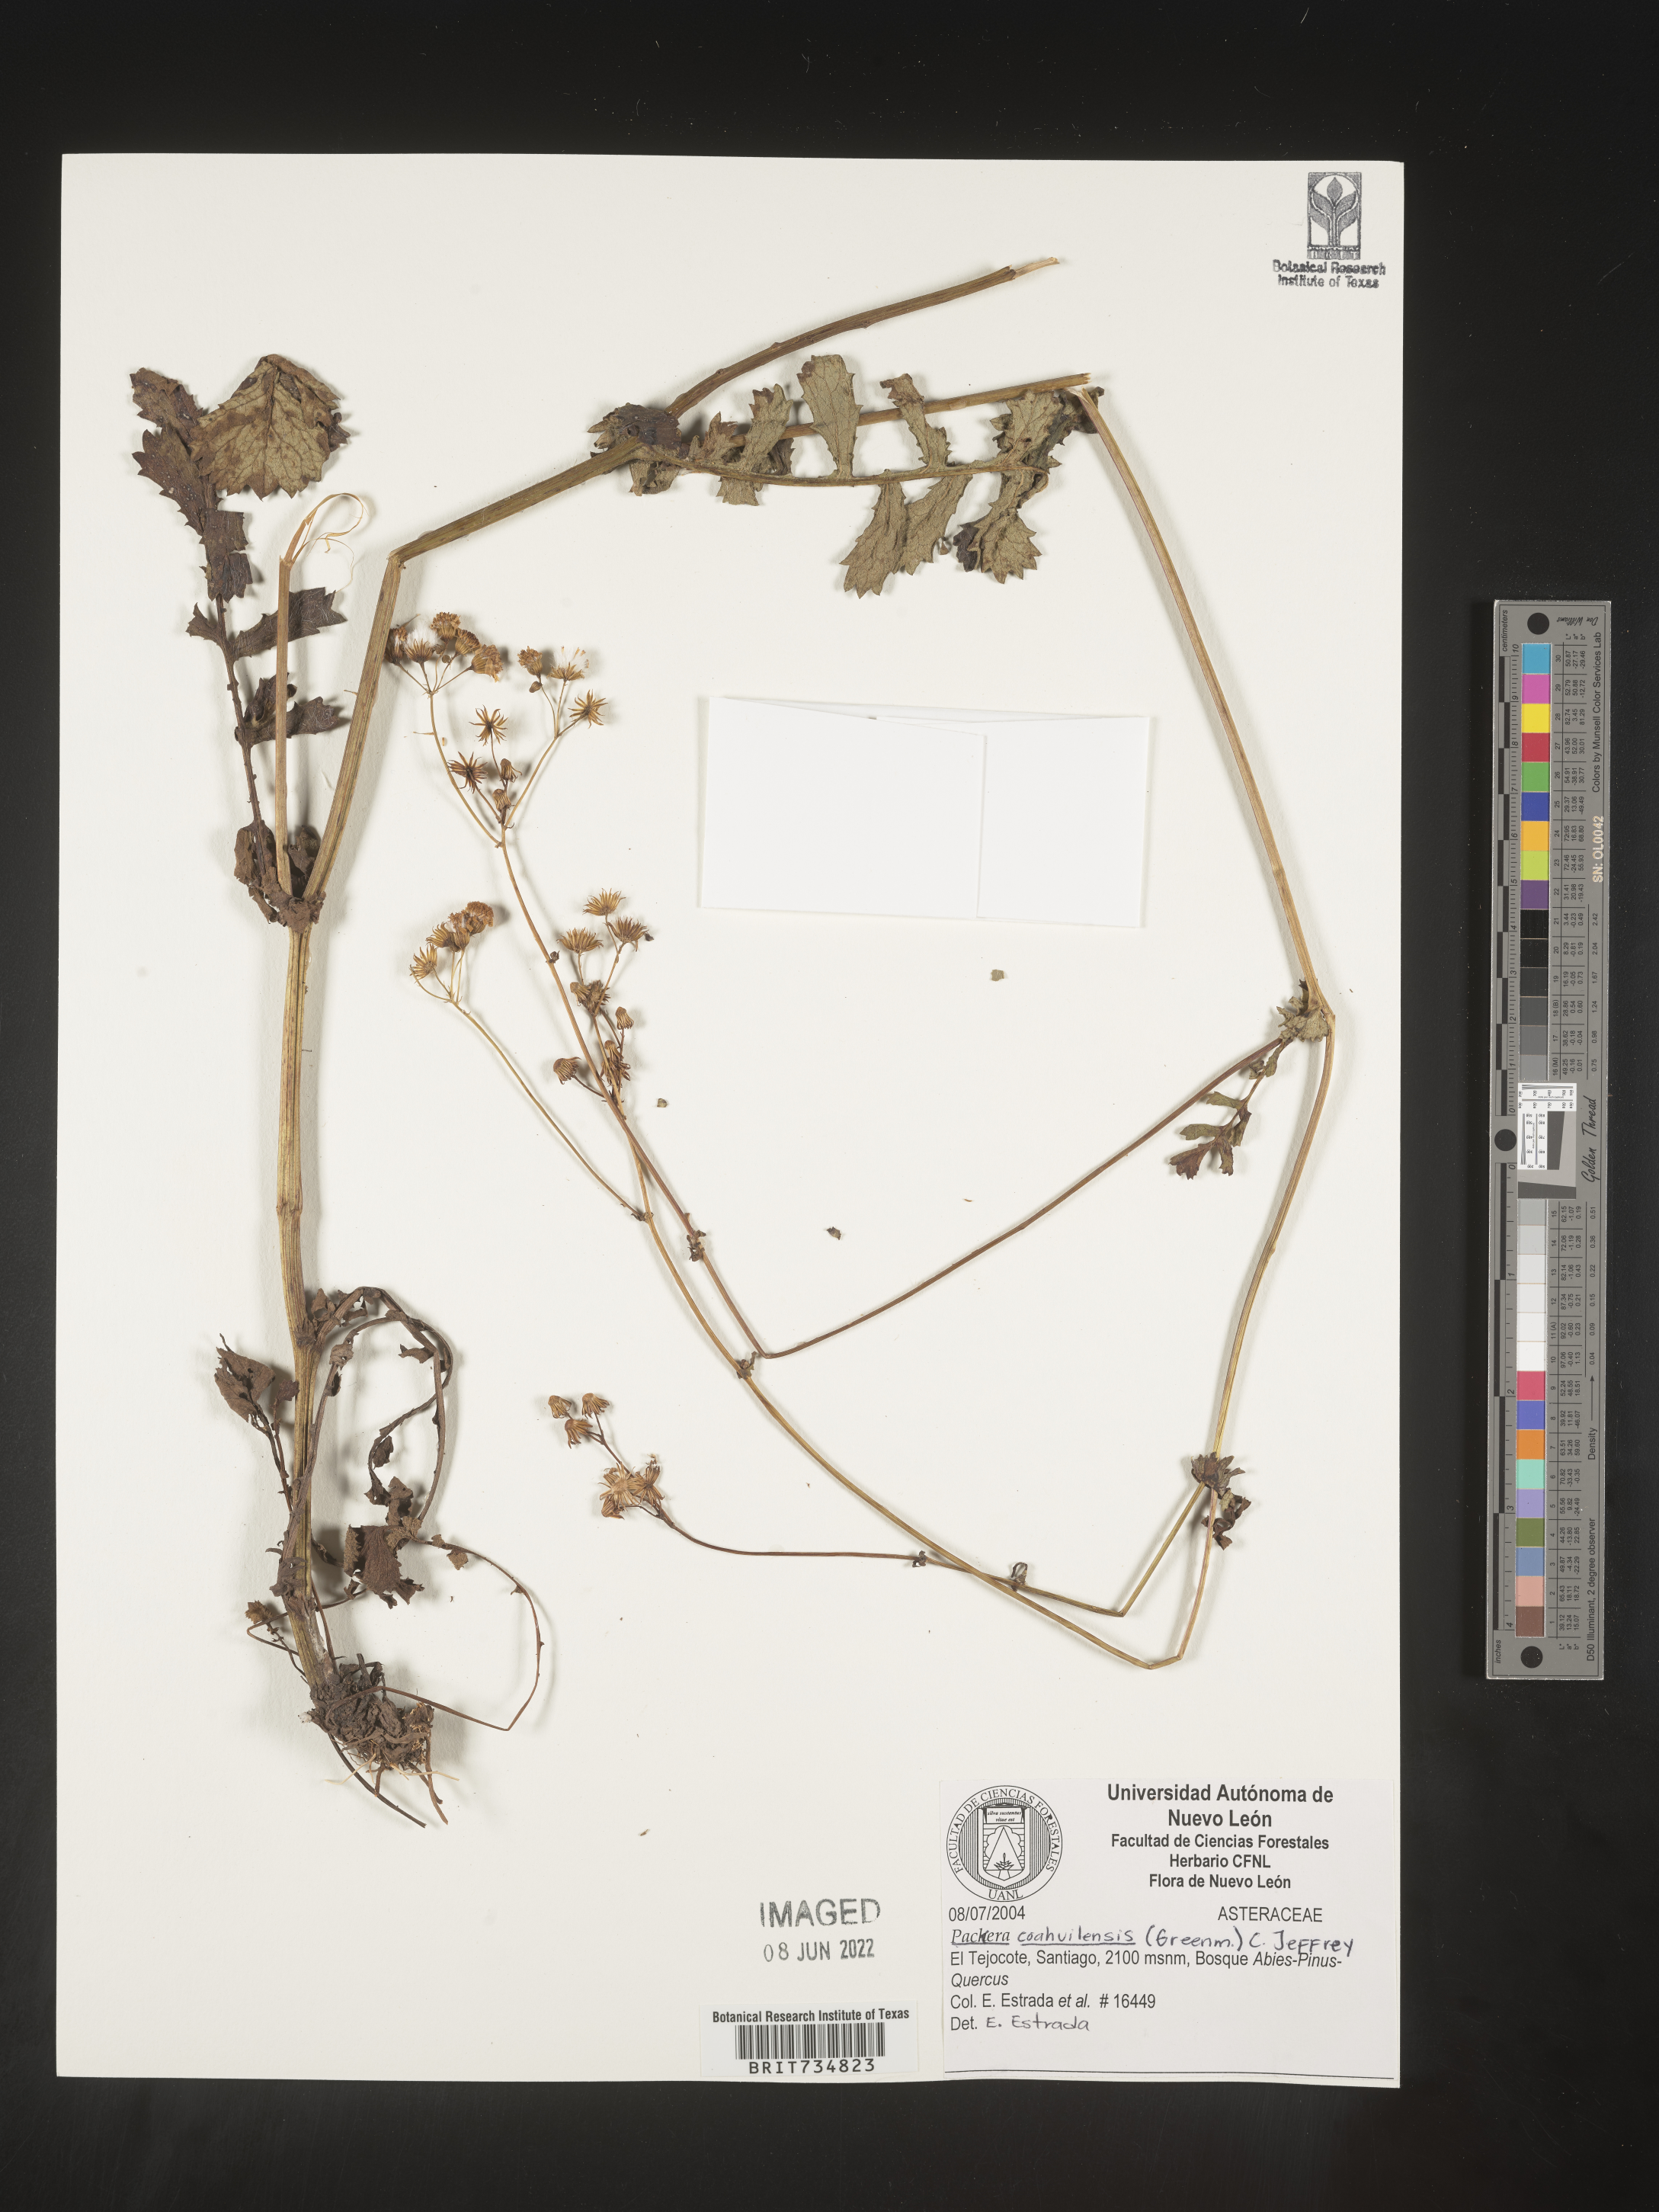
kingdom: Plantae
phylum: Tracheophyta
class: Magnoliopsida
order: Asterales
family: Asteraceae
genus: Packera
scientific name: Packera
